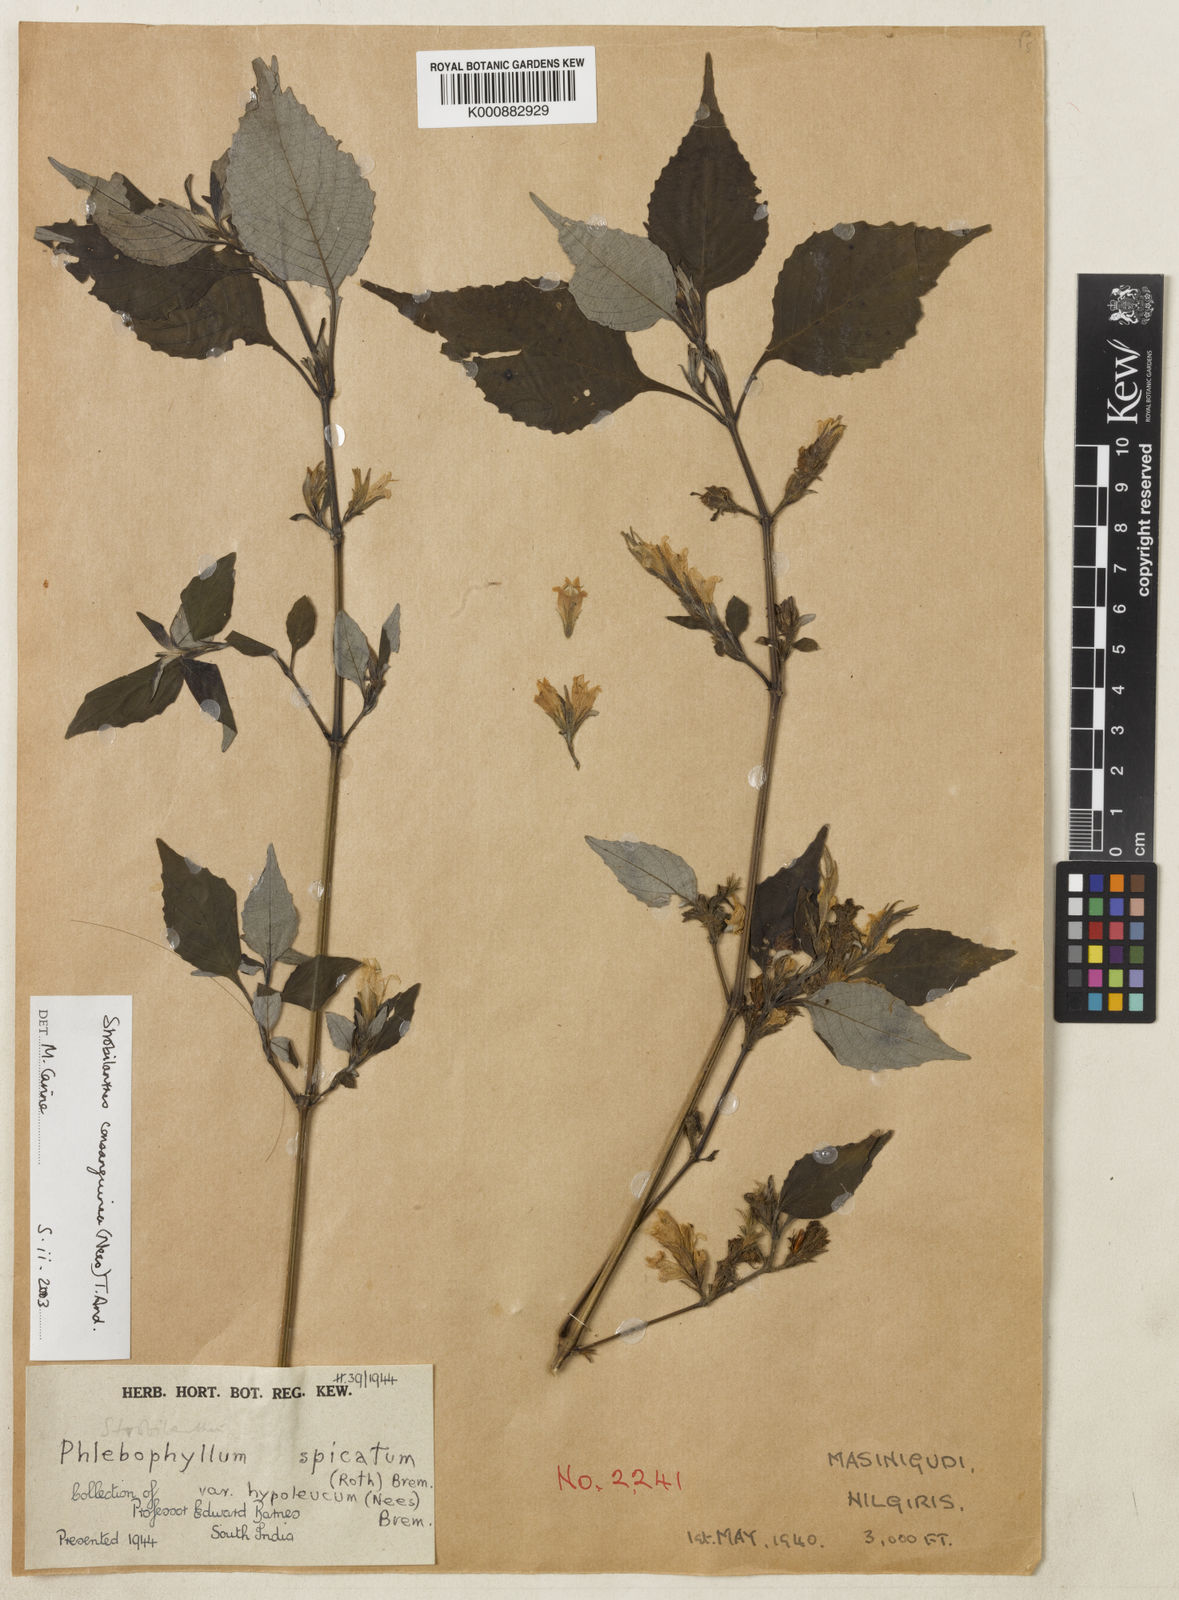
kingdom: Plantae
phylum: Tracheophyta
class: Magnoliopsida
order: Lamiales
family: Acanthaceae
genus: Strobilanthes
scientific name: Strobilanthes consanguinea
